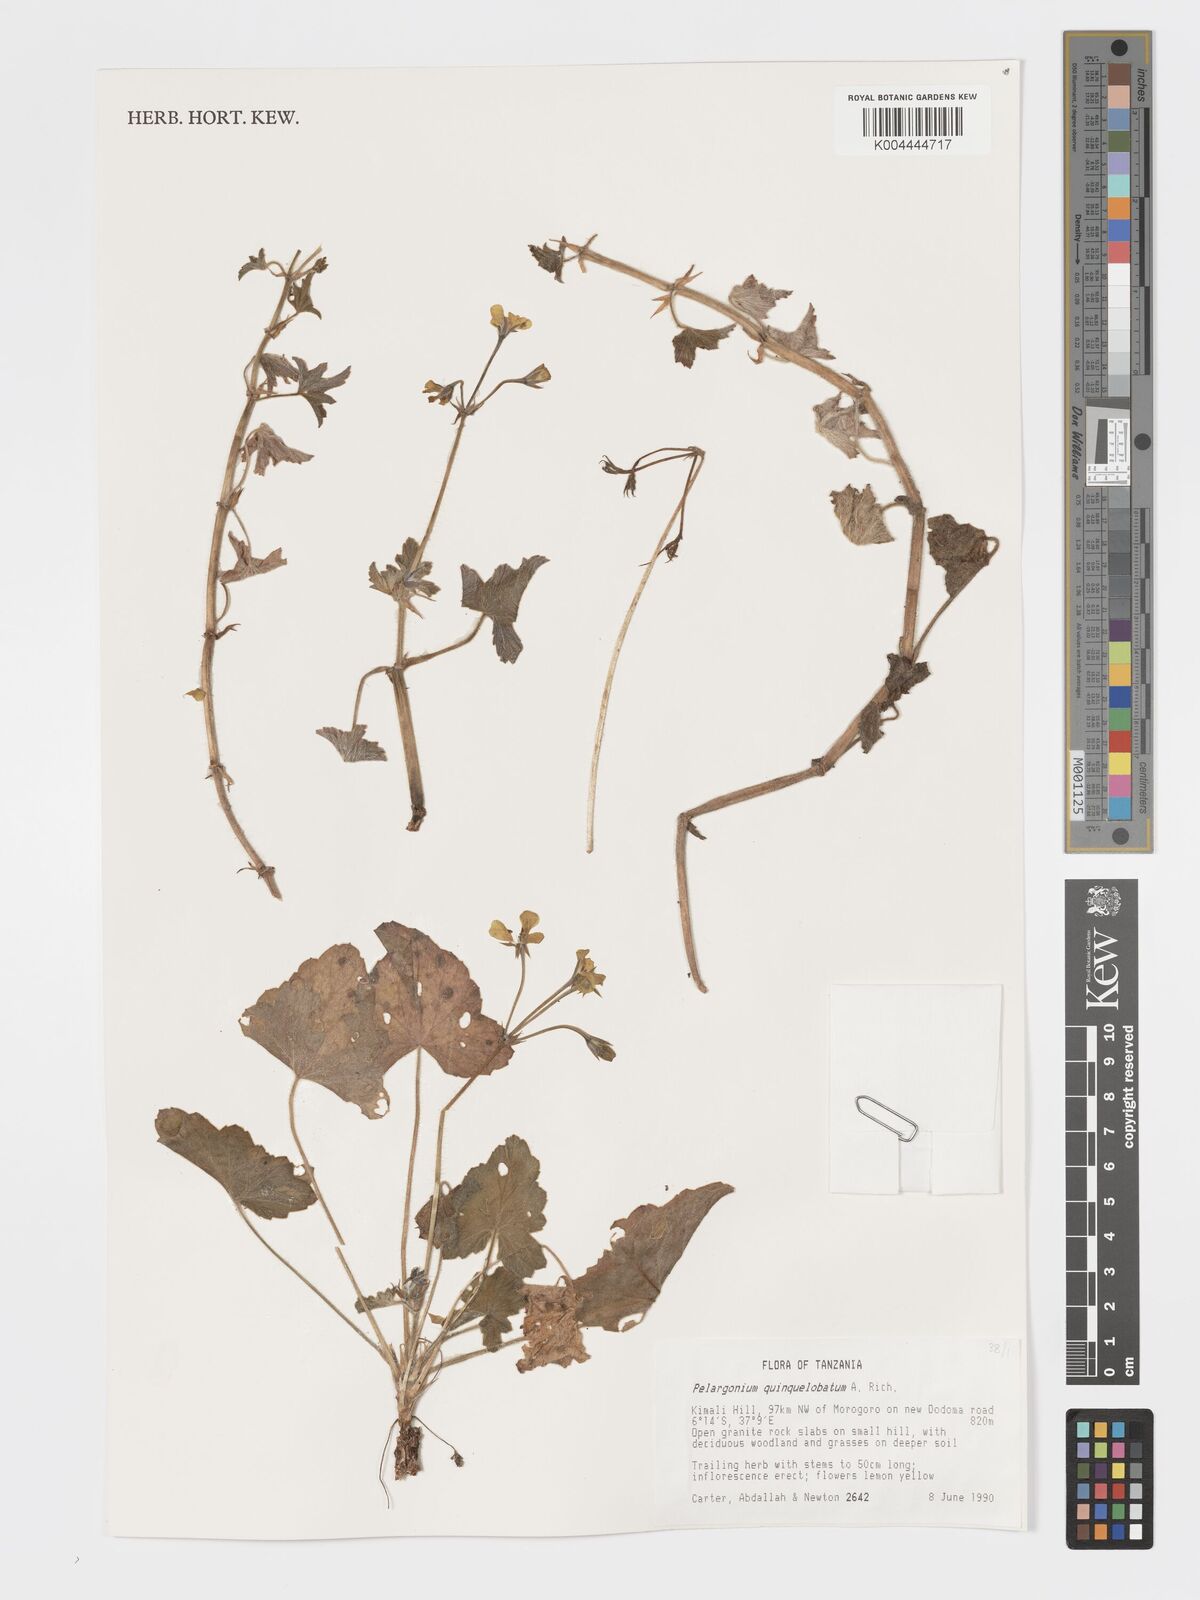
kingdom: Plantae
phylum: Tracheophyta
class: Magnoliopsida
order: Geraniales
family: Geraniaceae
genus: Pelargonium
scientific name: Pelargonium quinquelobatum
